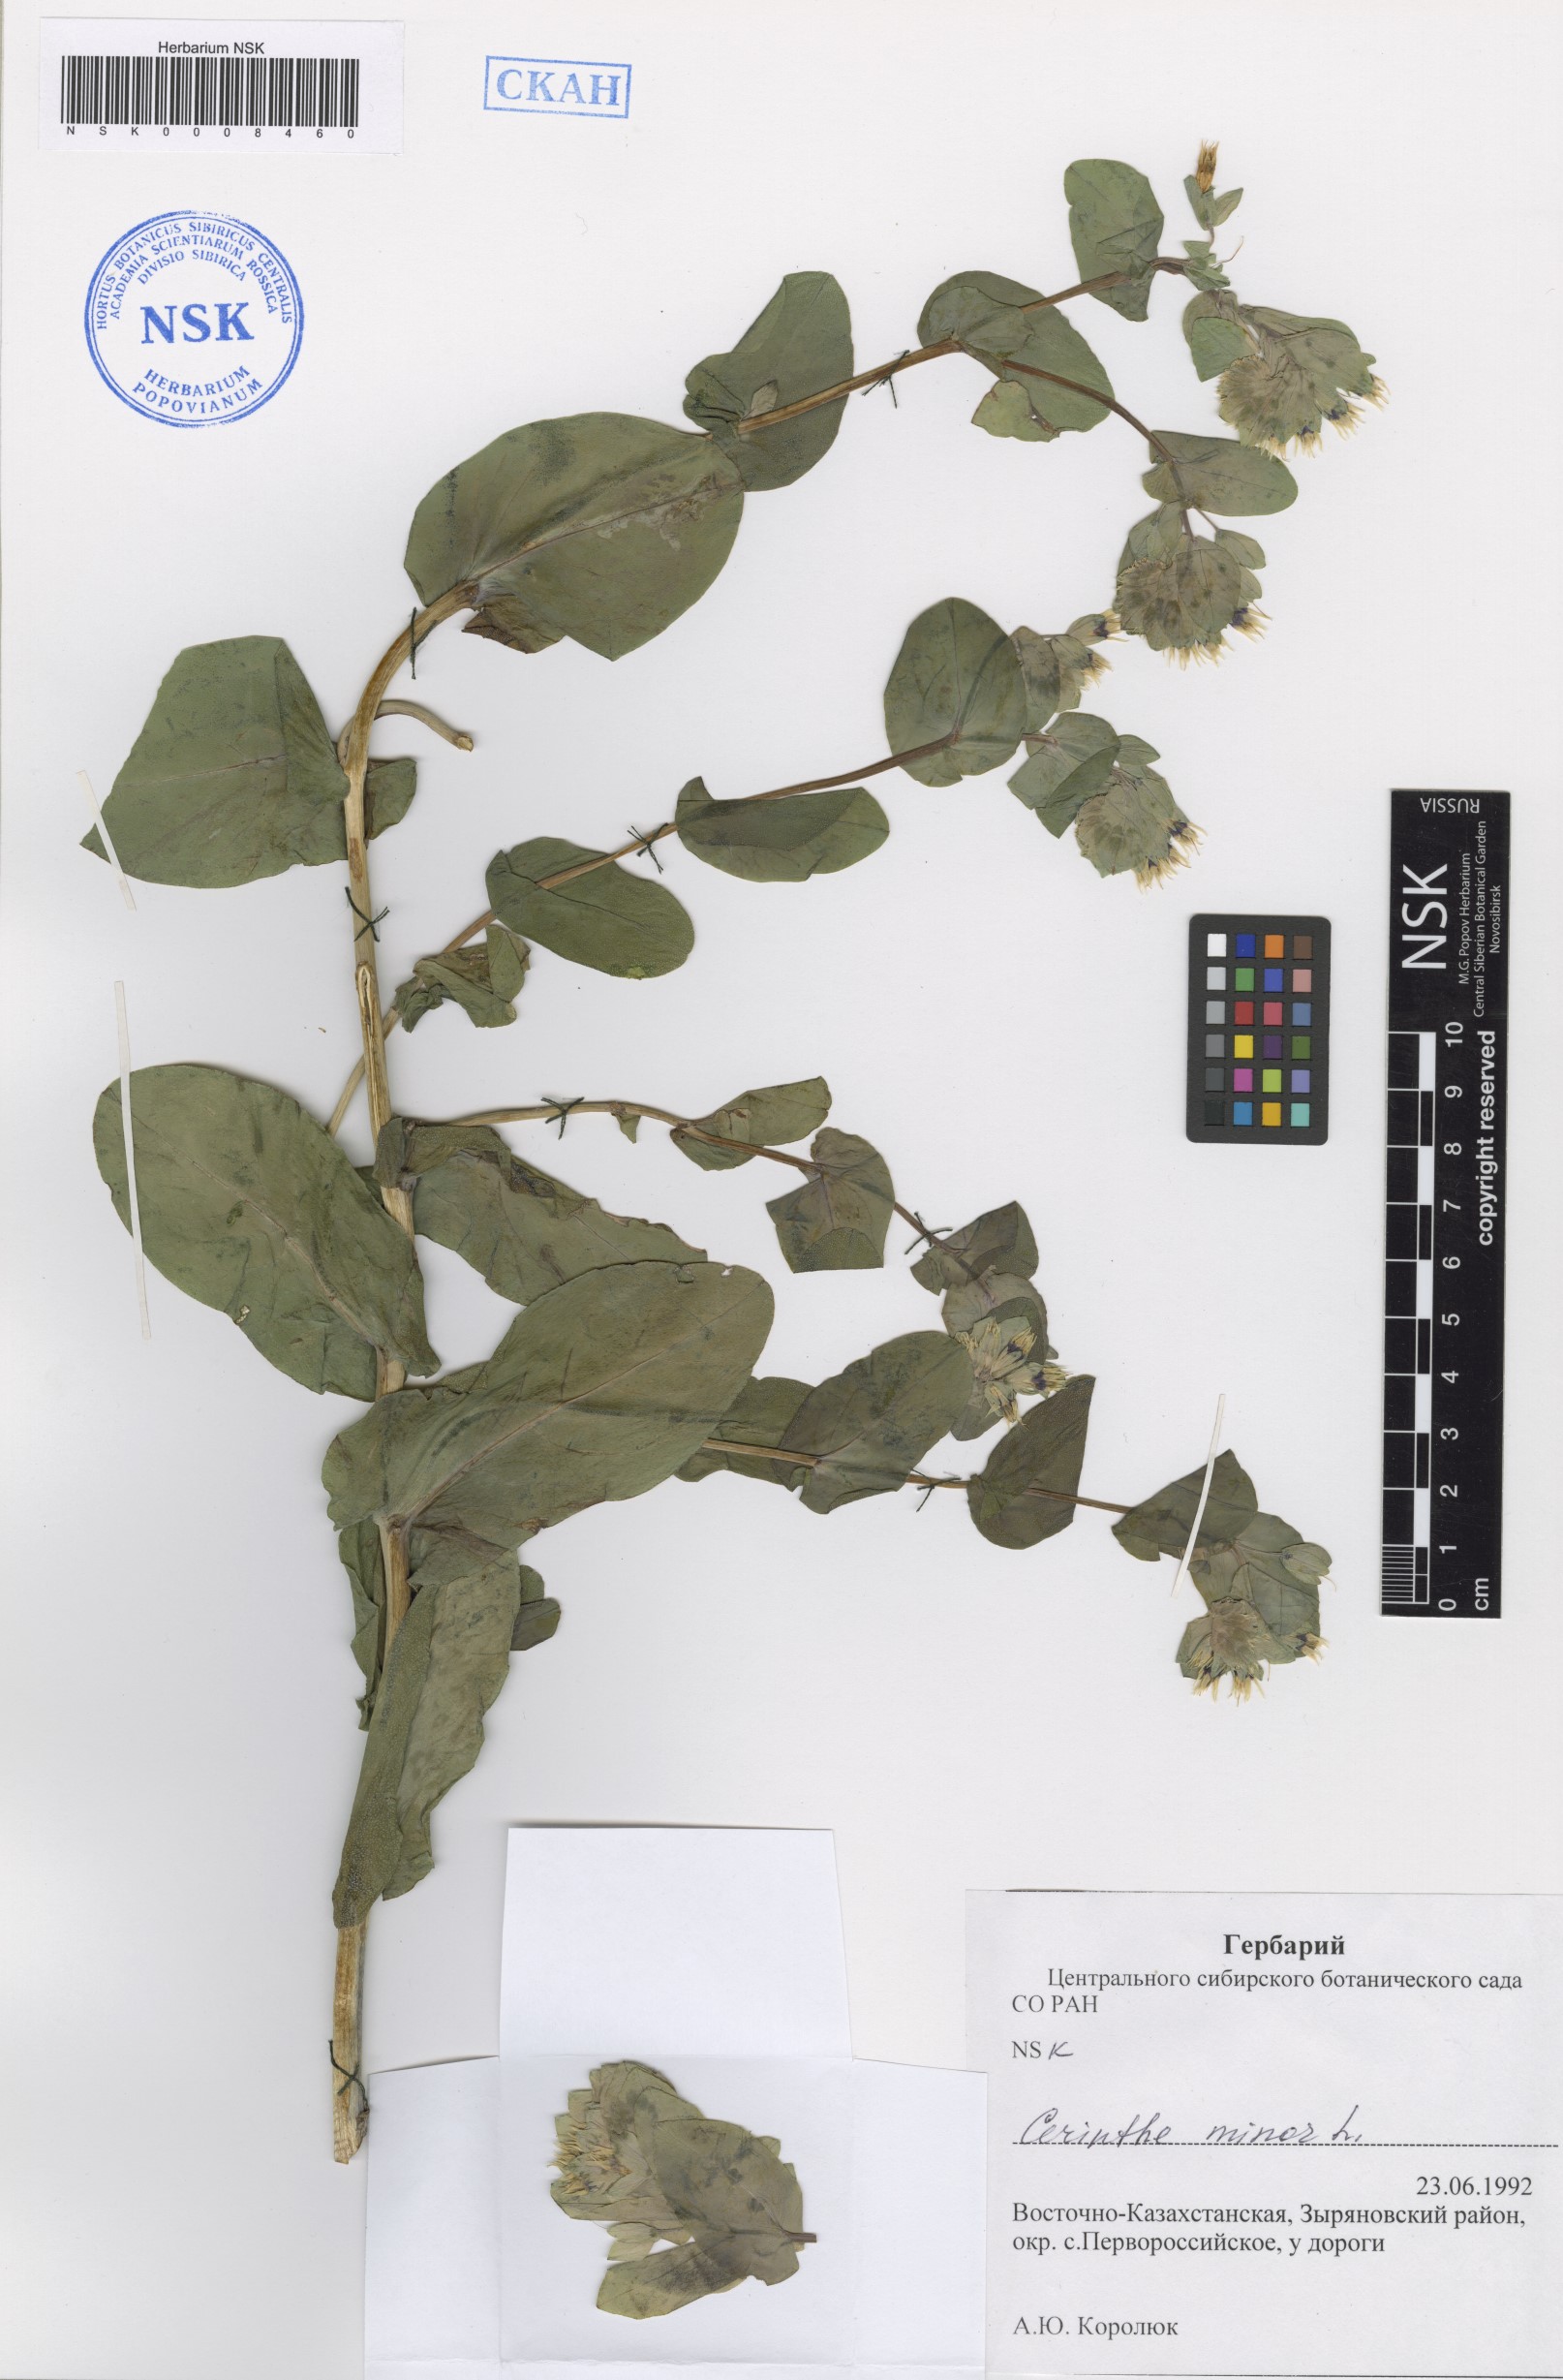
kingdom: Plantae
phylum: Tracheophyta
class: Magnoliopsida
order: Boraginales
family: Boraginaceae
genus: Cerinthe
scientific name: Cerinthe minor
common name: Lesser honeywort
